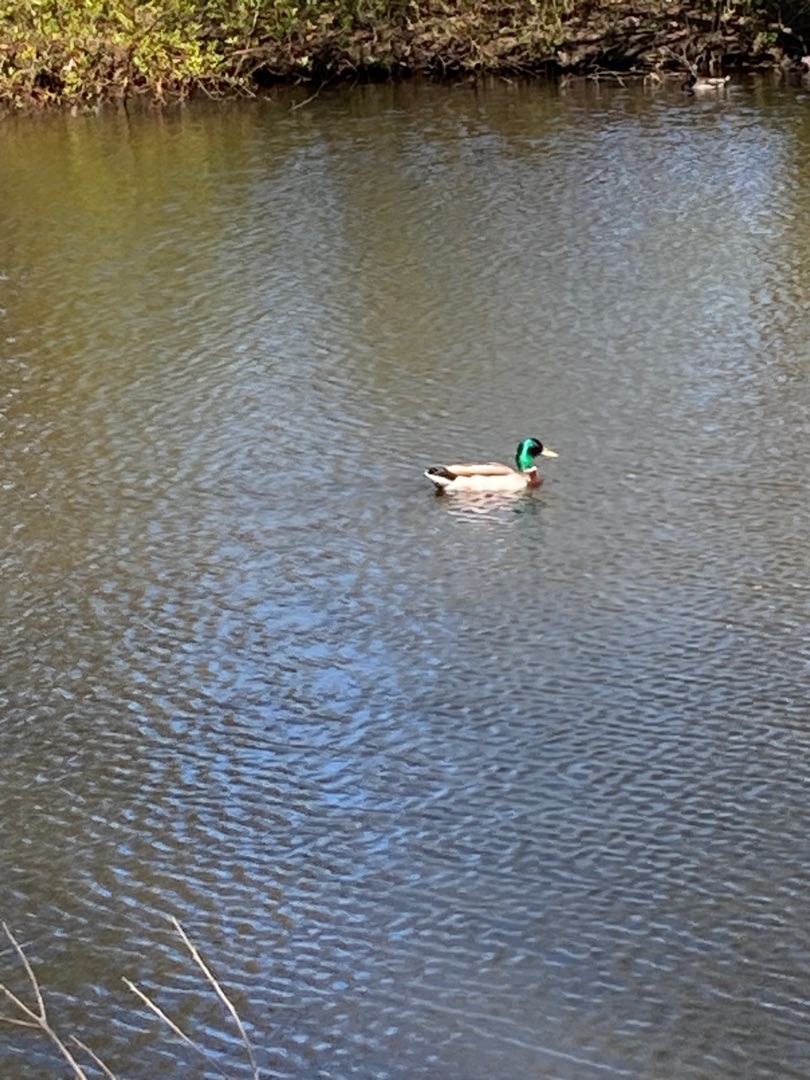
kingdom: Animalia
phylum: Chordata
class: Aves
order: Anseriformes
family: Anatidae
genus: Anas
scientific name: Anas platyrhynchos
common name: Gråand
